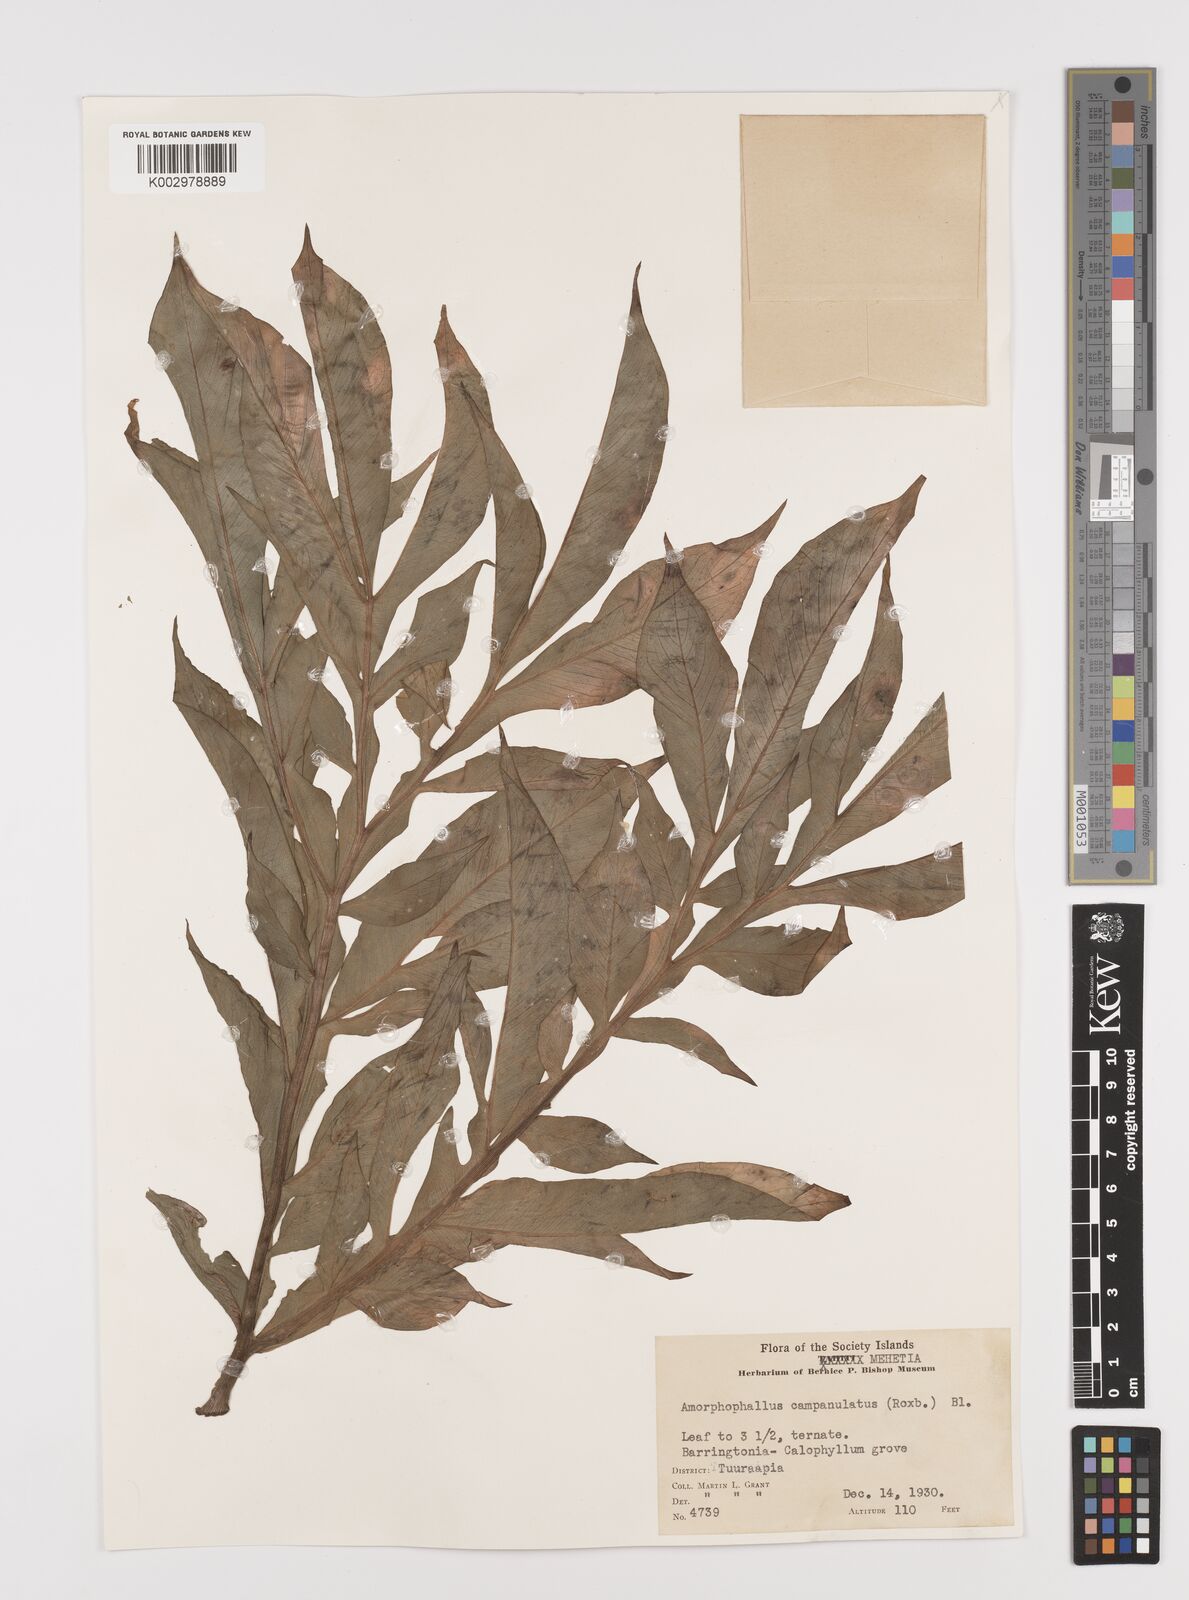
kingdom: Plantae
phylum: Tracheophyta
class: Liliopsida
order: Alismatales
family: Araceae
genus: Amorphophallus
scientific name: Amorphophallus paeoniifolius
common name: Telinga-potato
